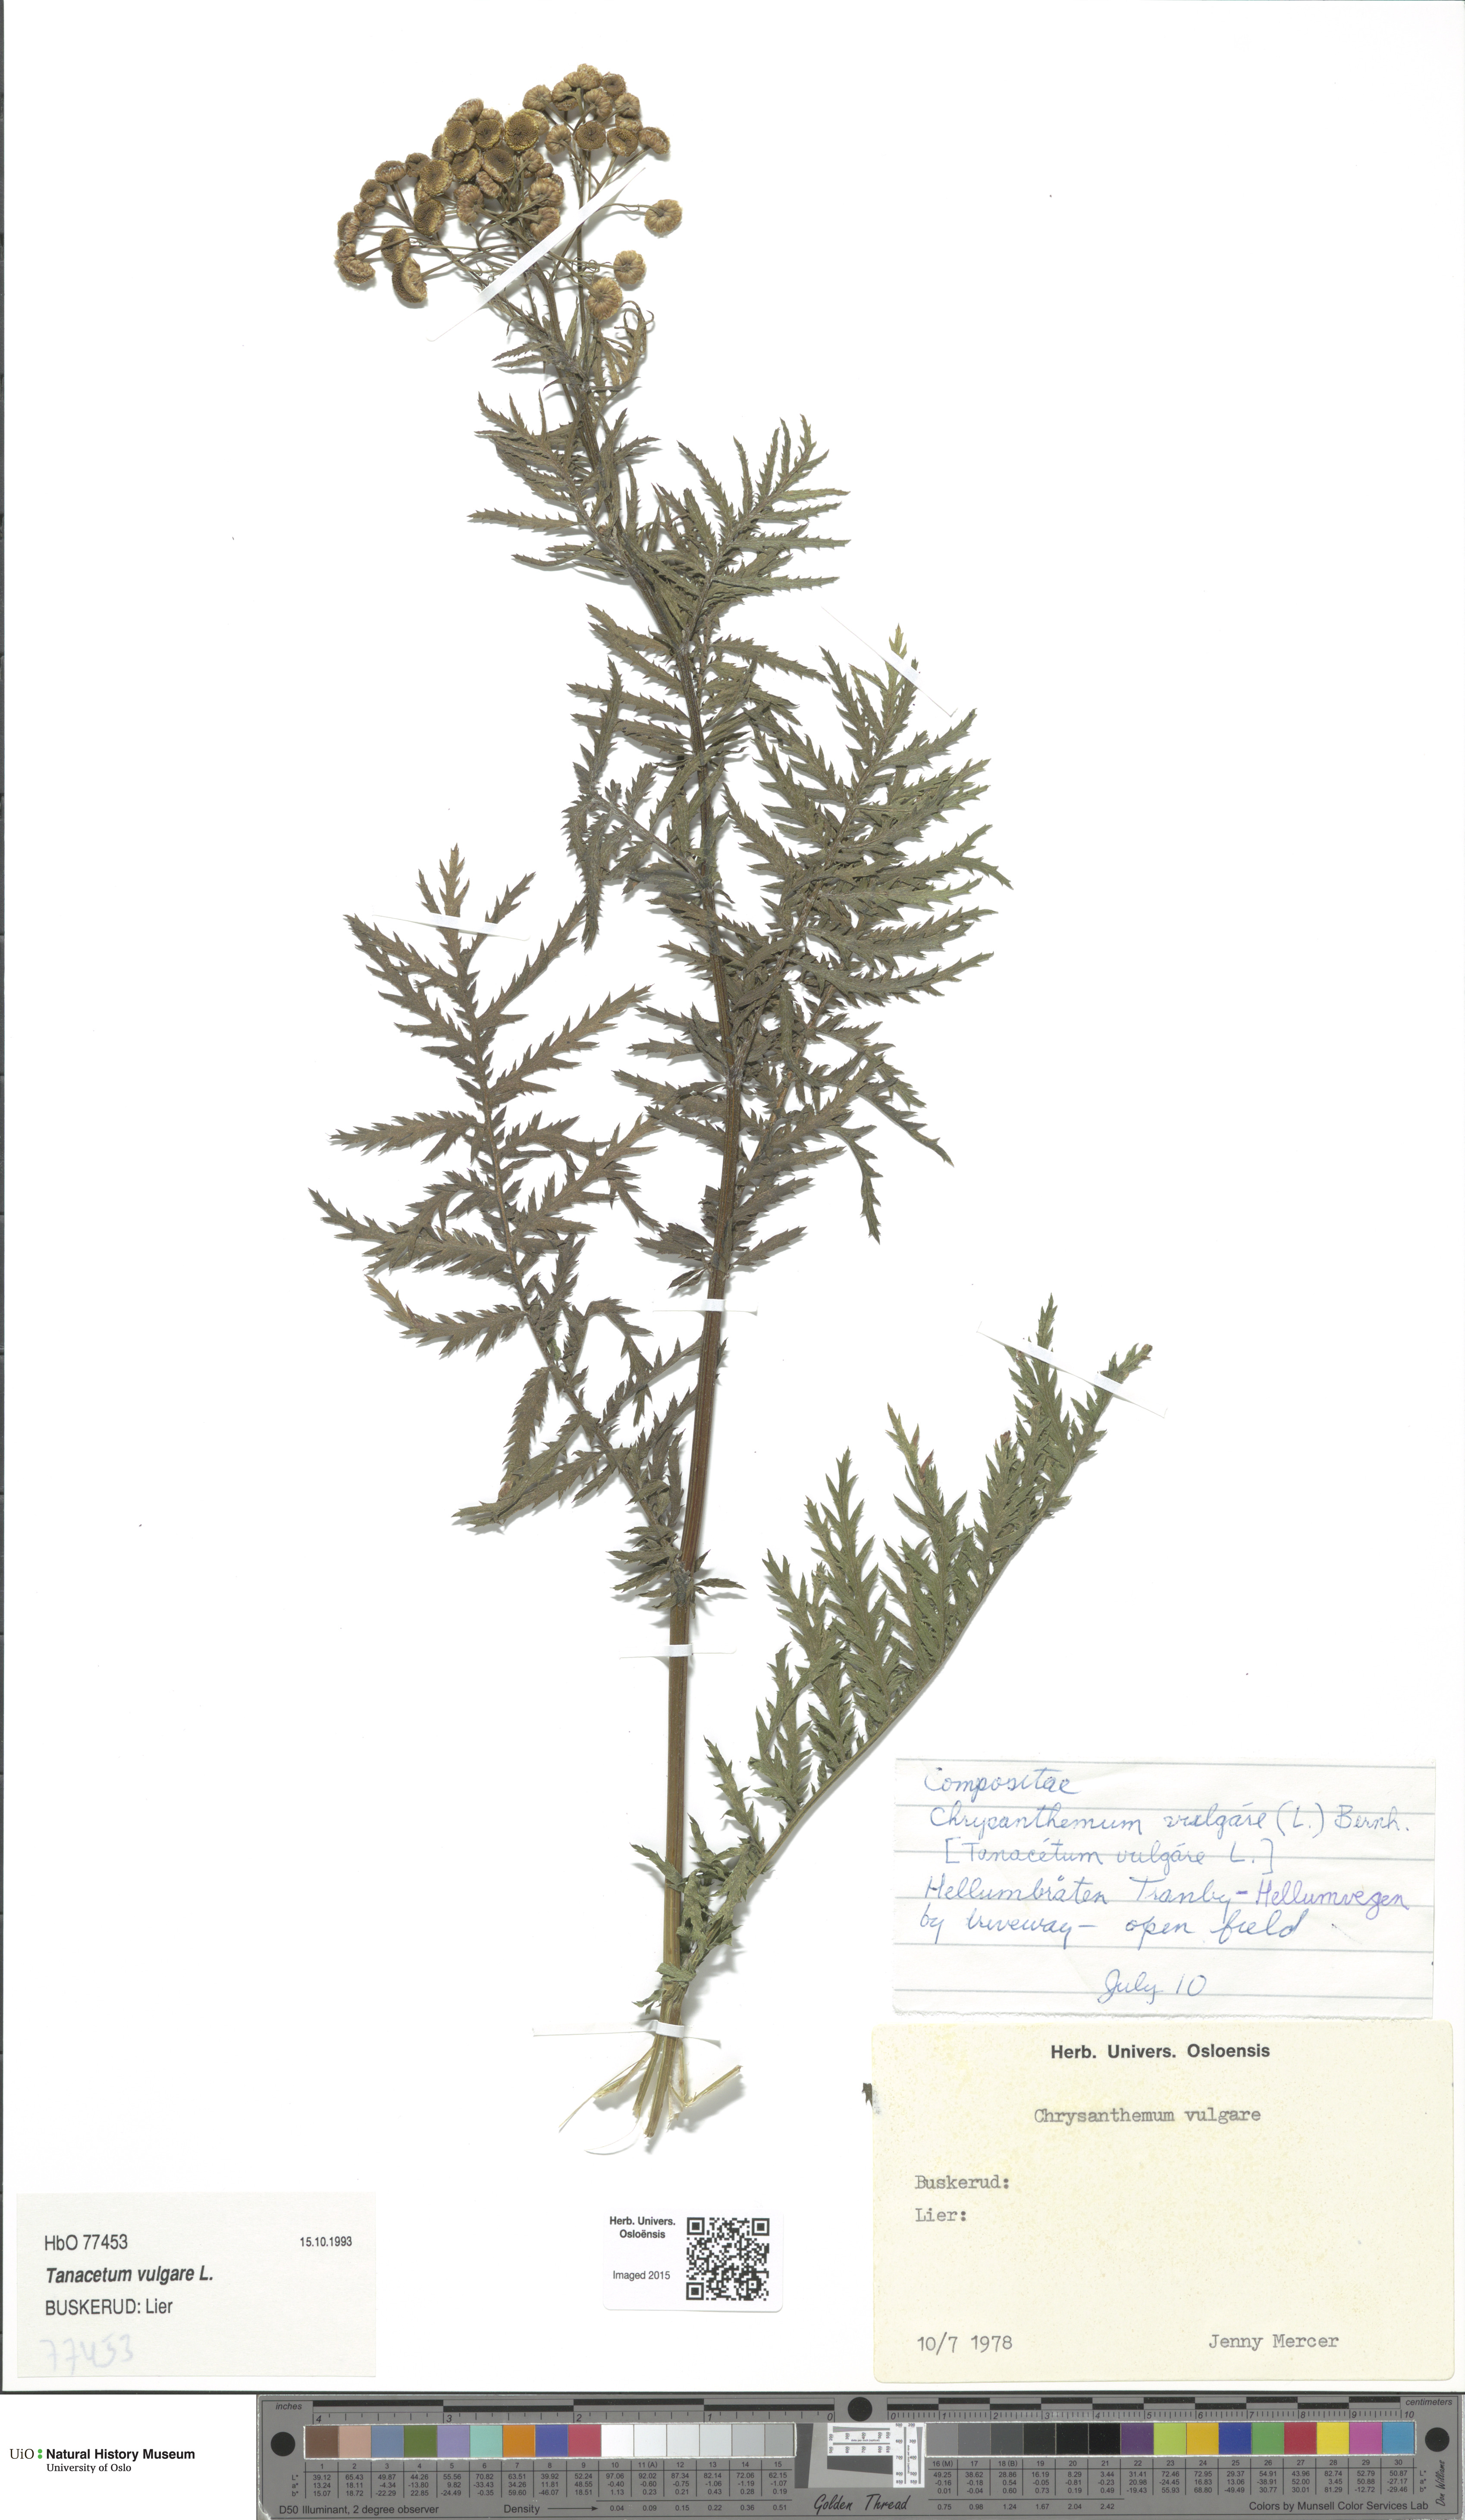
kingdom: Plantae
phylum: Tracheophyta
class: Magnoliopsida
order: Asterales
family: Asteraceae
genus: Tanacetum
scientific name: Tanacetum vulgare
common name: Common tansy
